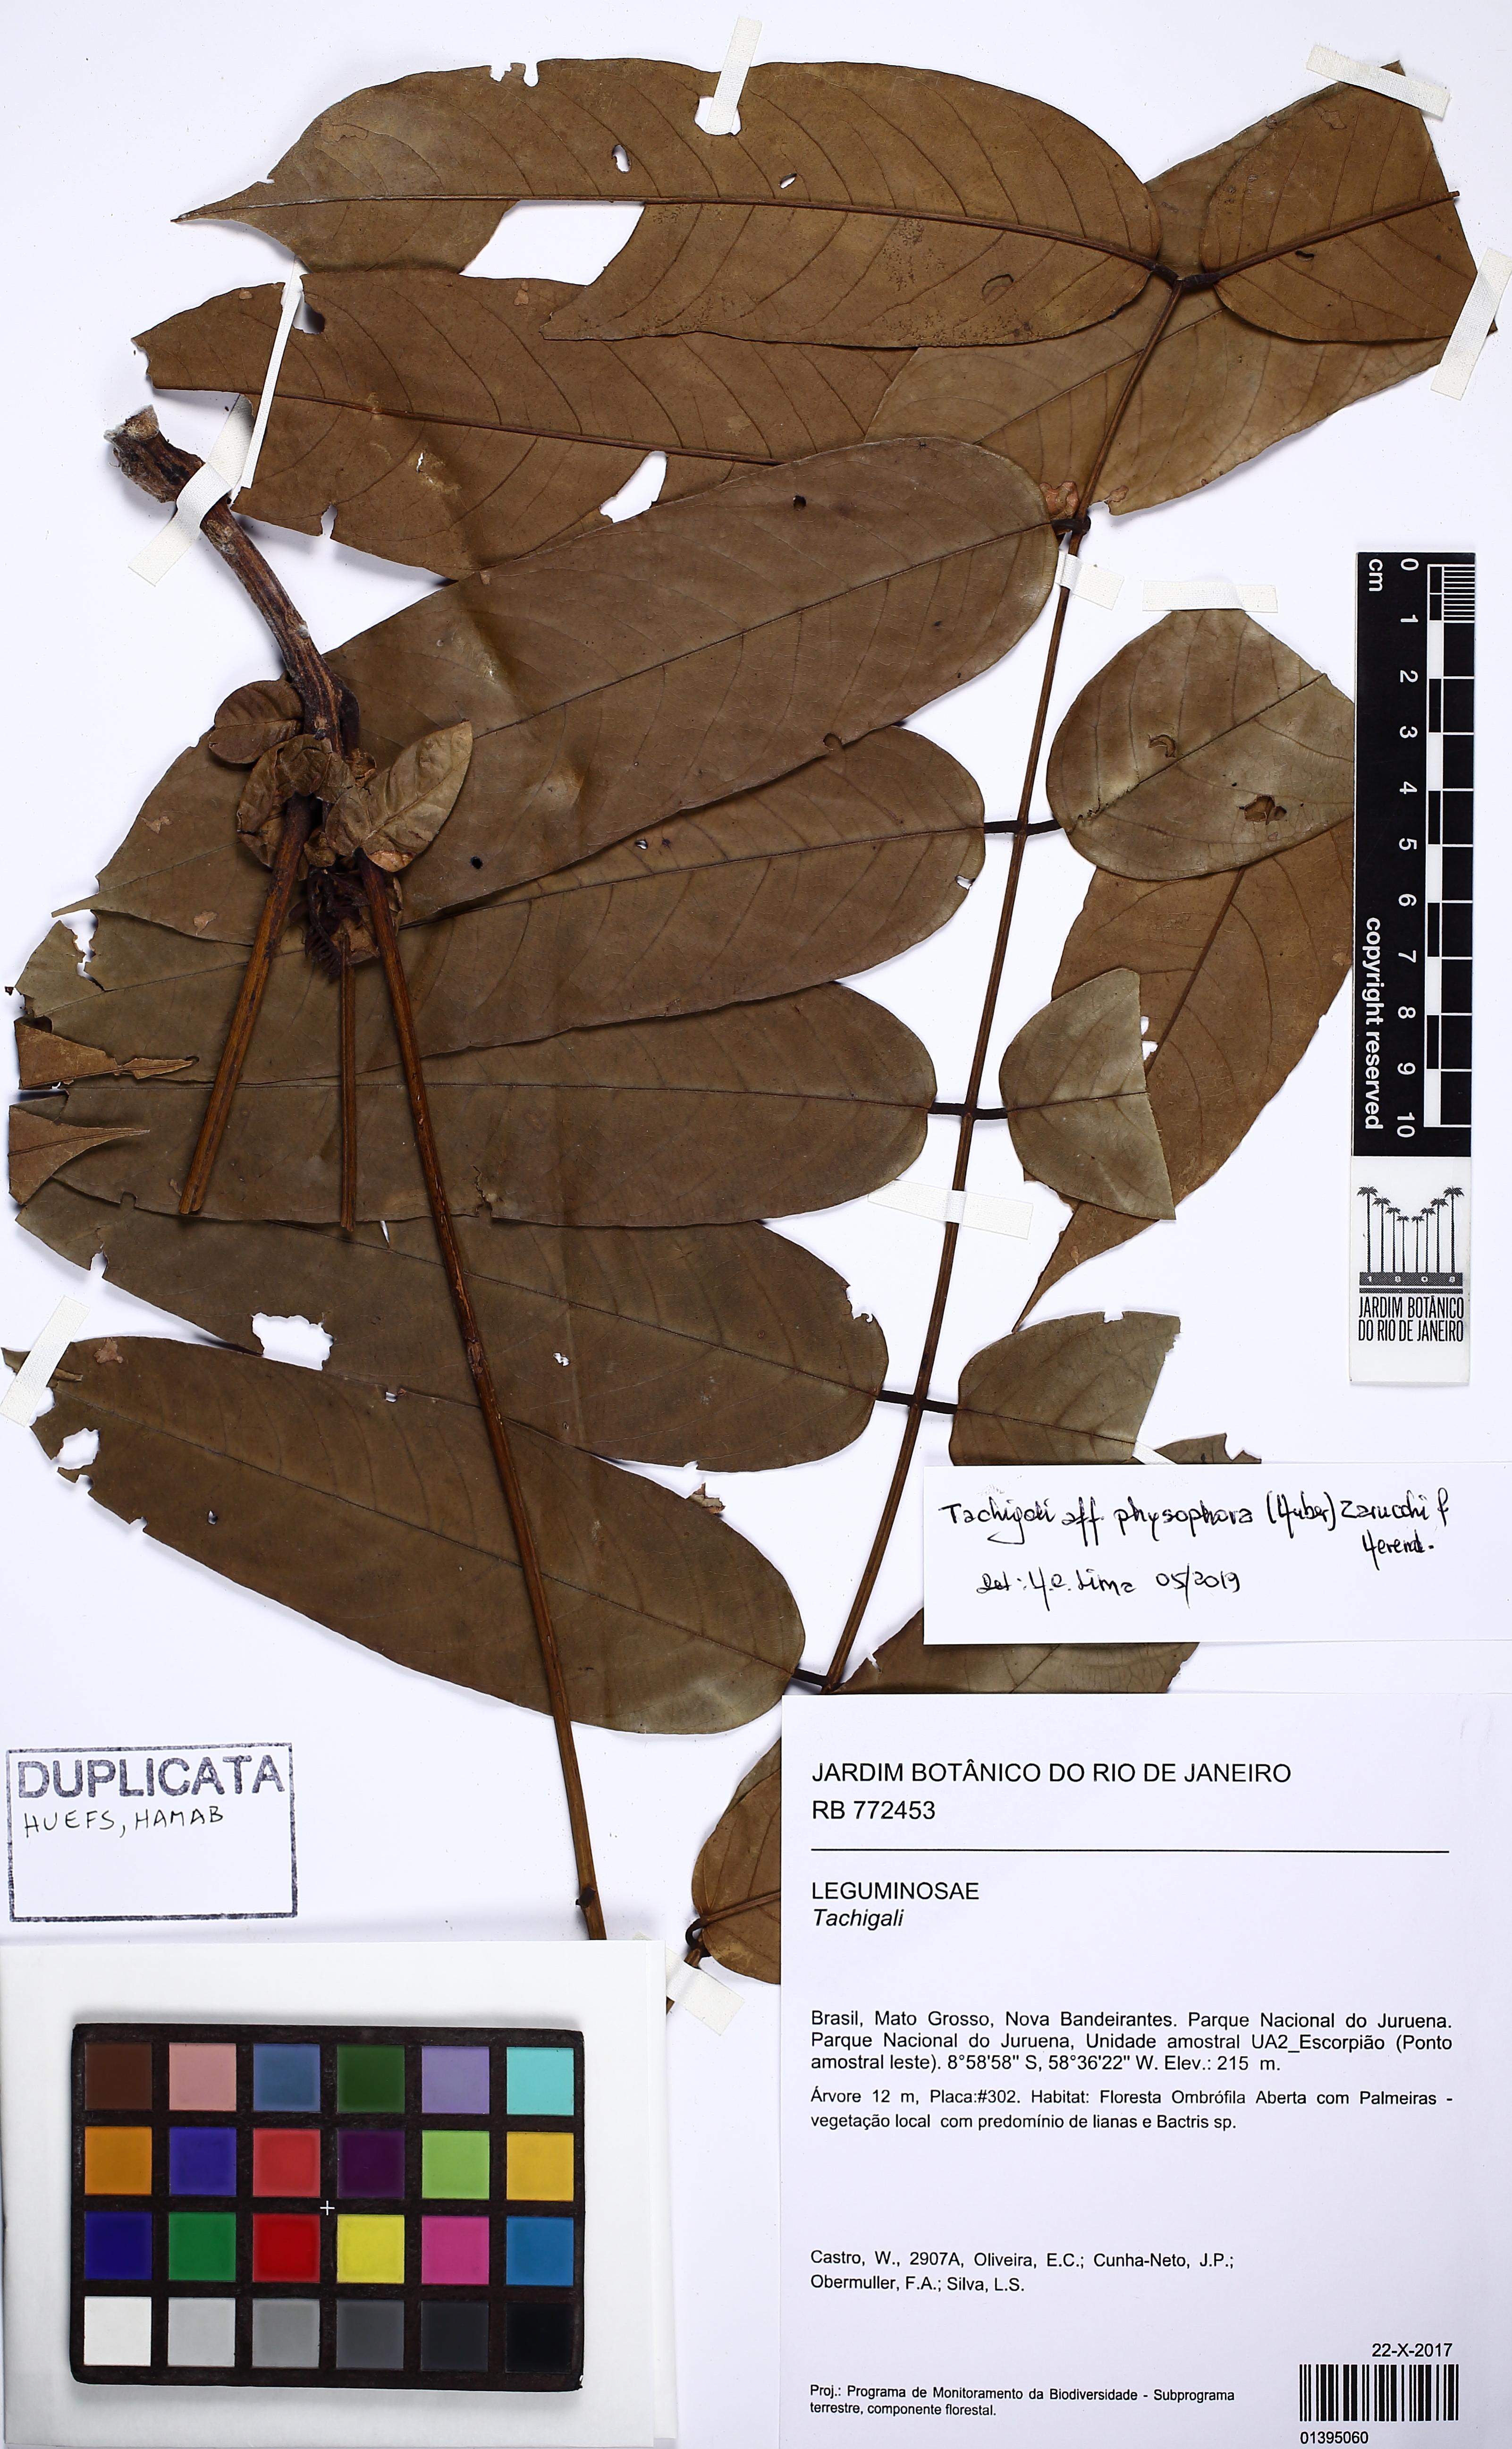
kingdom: Plantae
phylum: Tracheophyta
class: Magnoliopsida
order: Fabales
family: Fabaceae
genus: Tachigali
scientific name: Tachigali physophora
